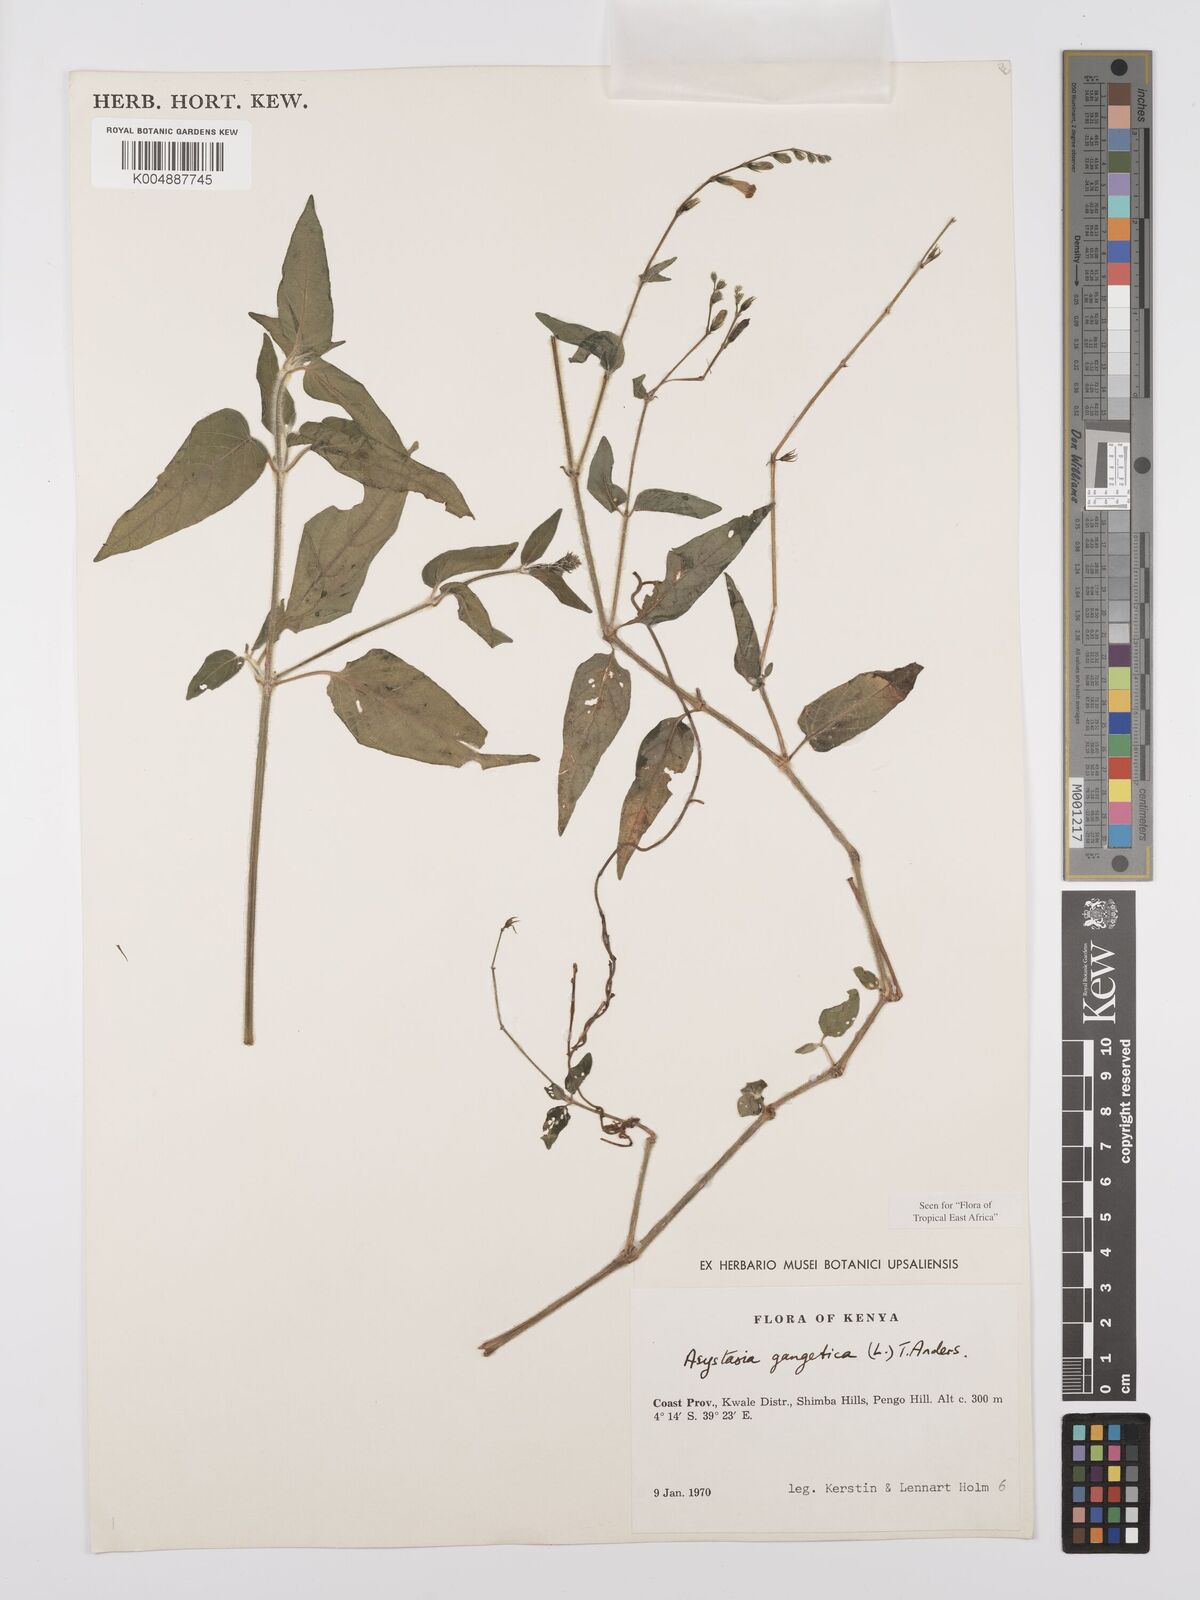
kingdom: Plantae
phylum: Tracheophyta
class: Magnoliopsida
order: Lamiales
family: Acanthaceae
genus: Asystasia
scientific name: Asystasia gangetica
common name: Chinese violet
